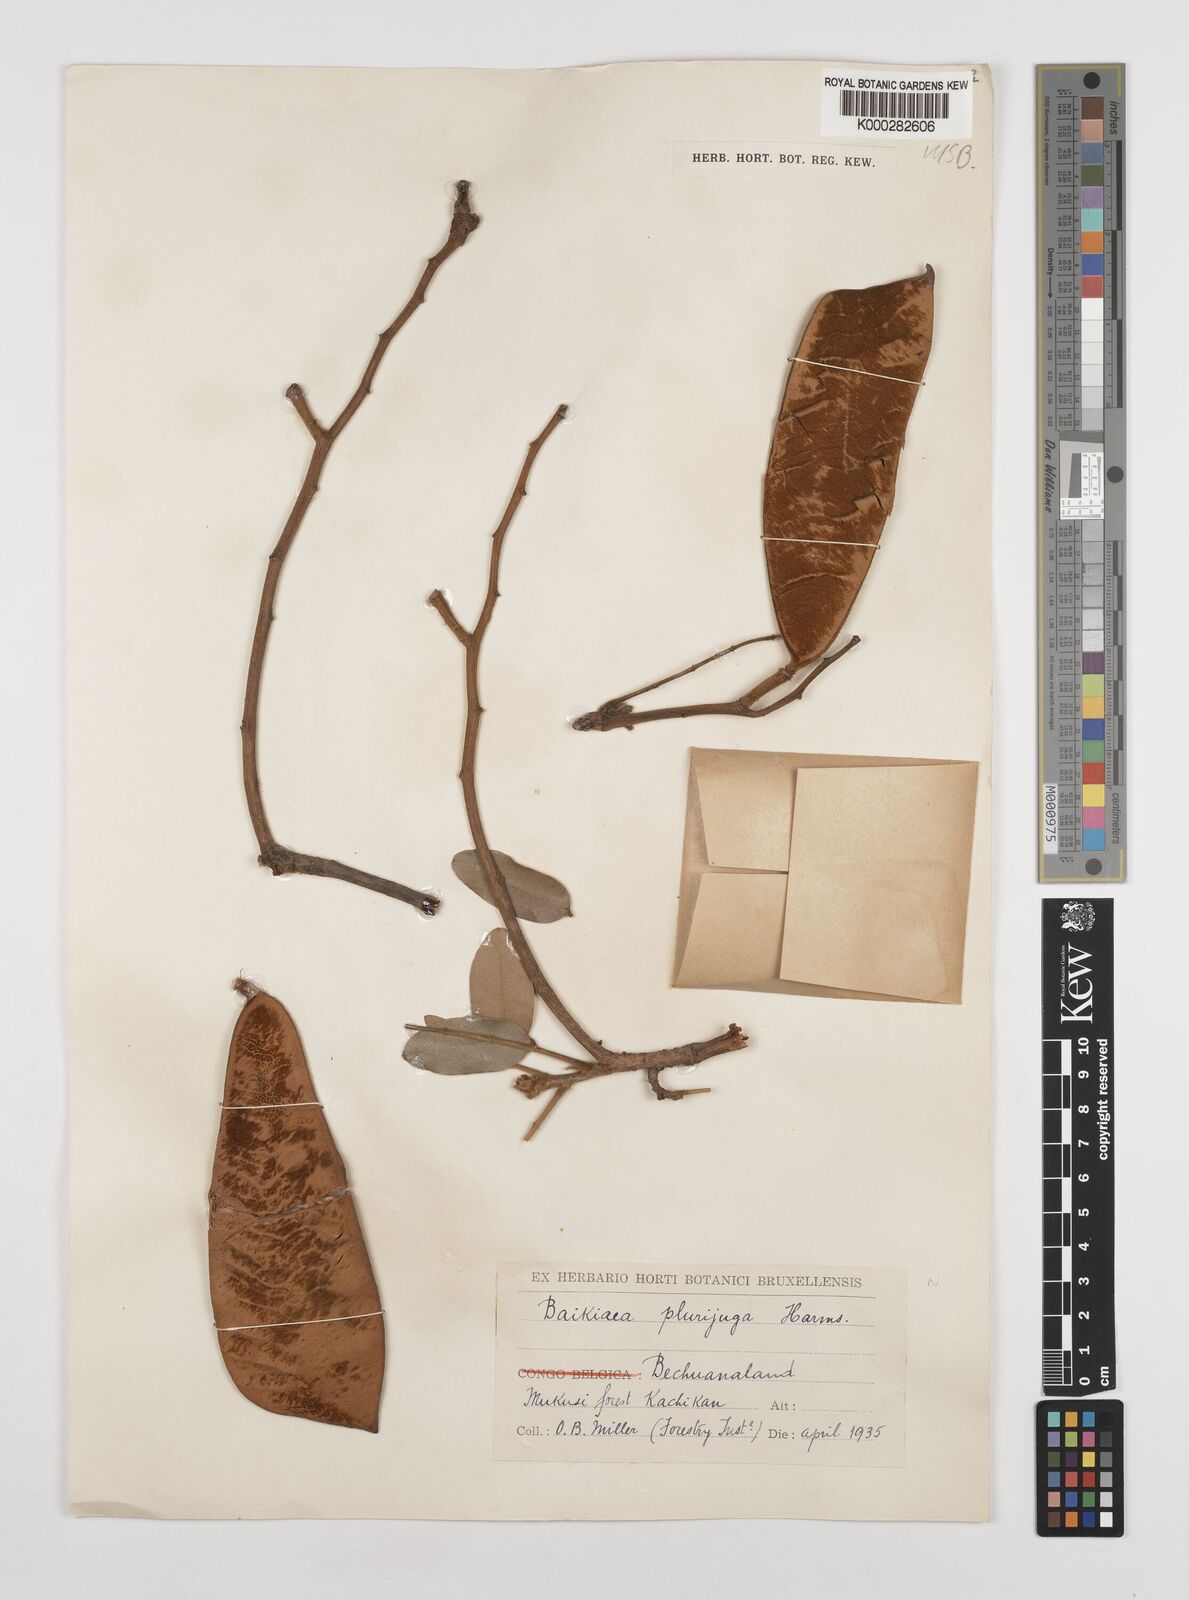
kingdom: Plantae
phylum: Tracheophyta
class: Magnoliopsida
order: Fabales
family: Fabaceae
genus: Baikiaea
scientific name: Baikiaea plurijuga
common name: Rhodesian-teak
